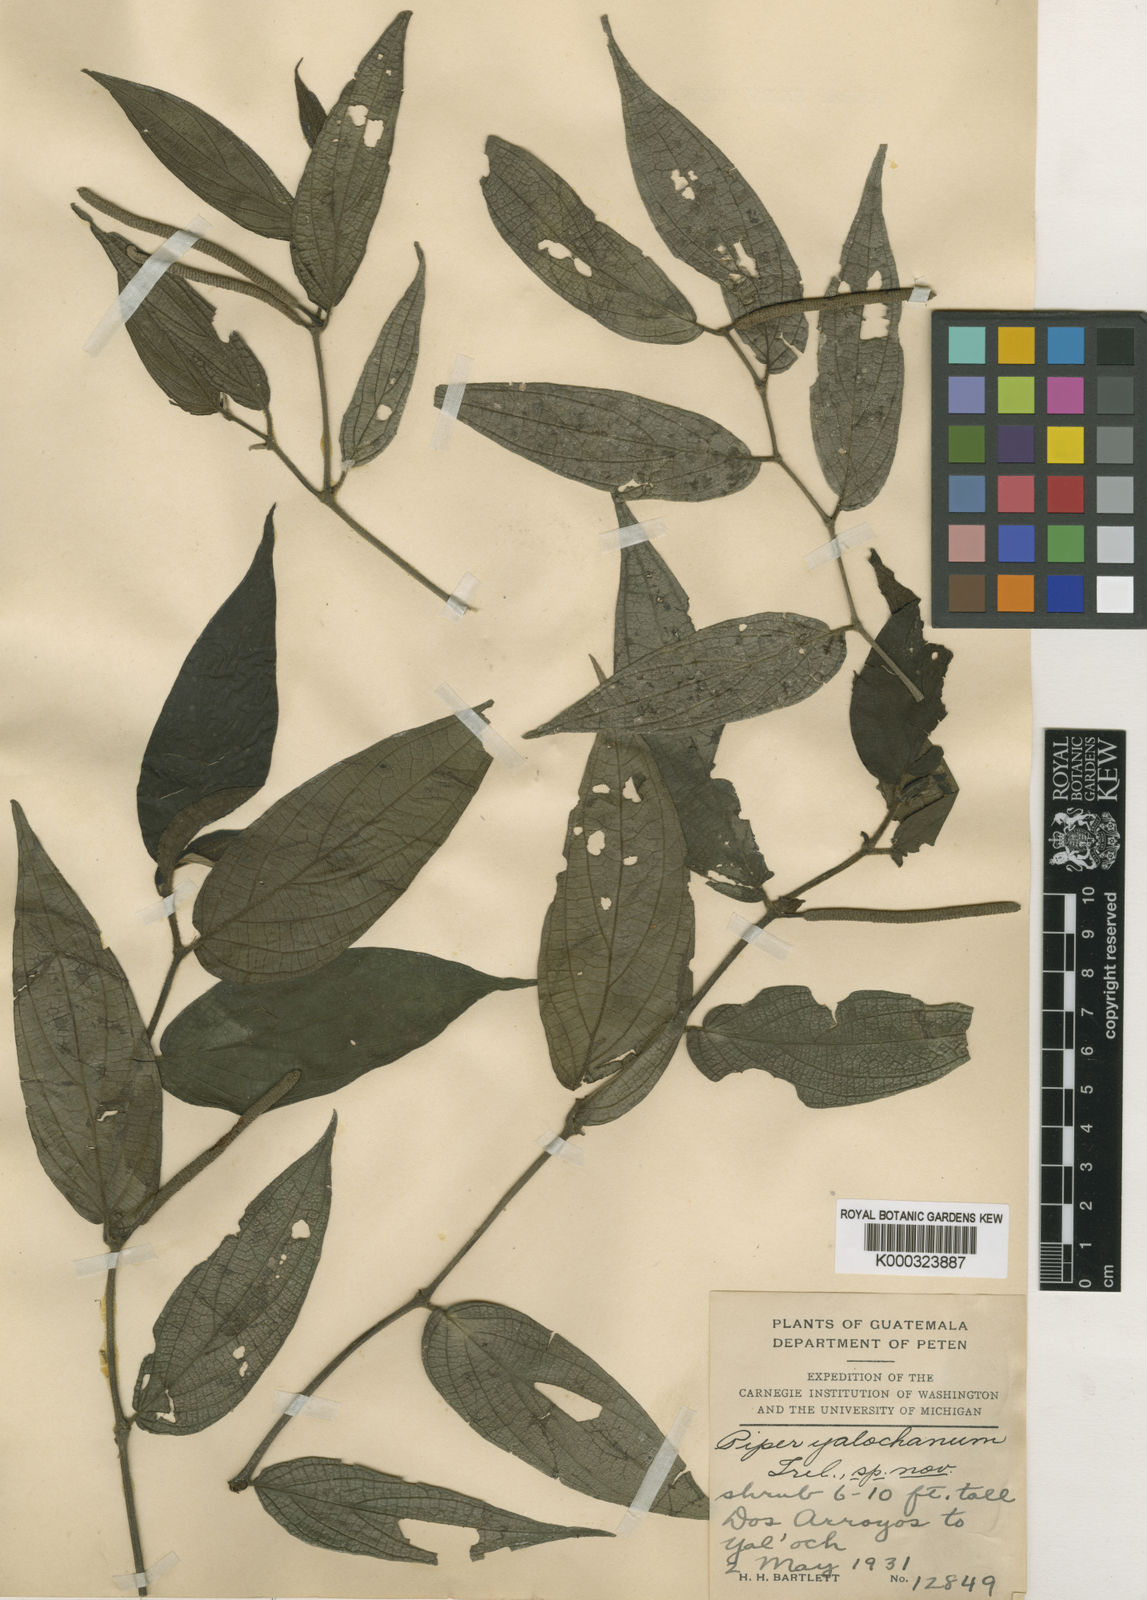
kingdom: Plantae
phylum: Tracheophyta
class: Magnoliopsida
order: Piperales
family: Piperaceae
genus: Piper
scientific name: Piper cayoense
